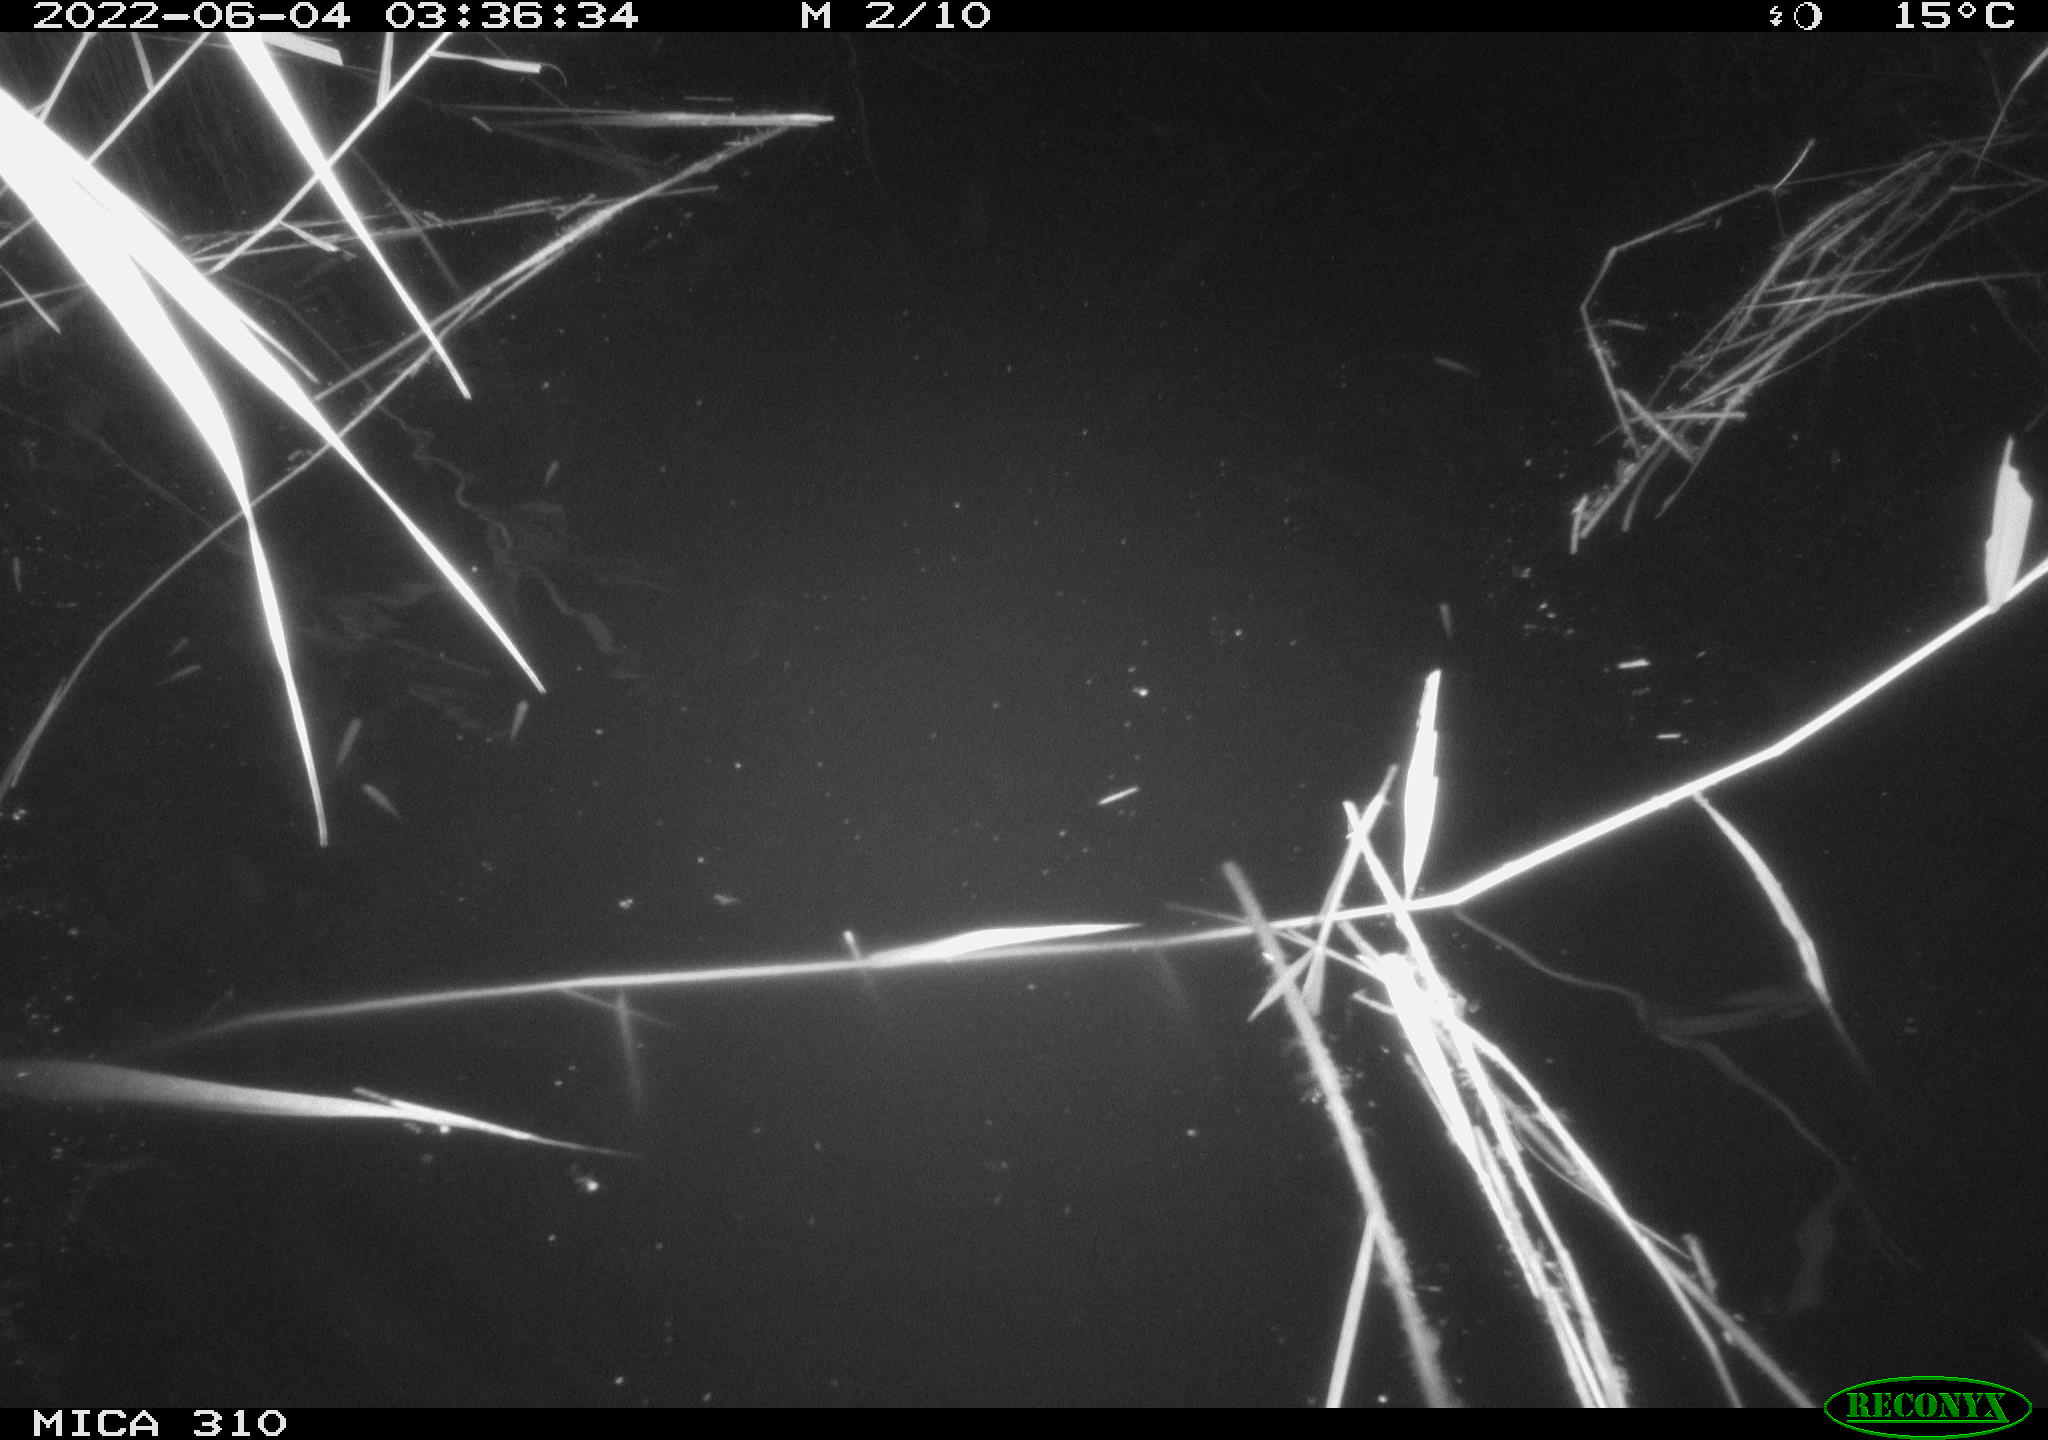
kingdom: Animalia
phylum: Chordata
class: Aves
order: Anseriformes
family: Anatidae
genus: Anas
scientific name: Anas platyrhynchos
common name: Mallard
